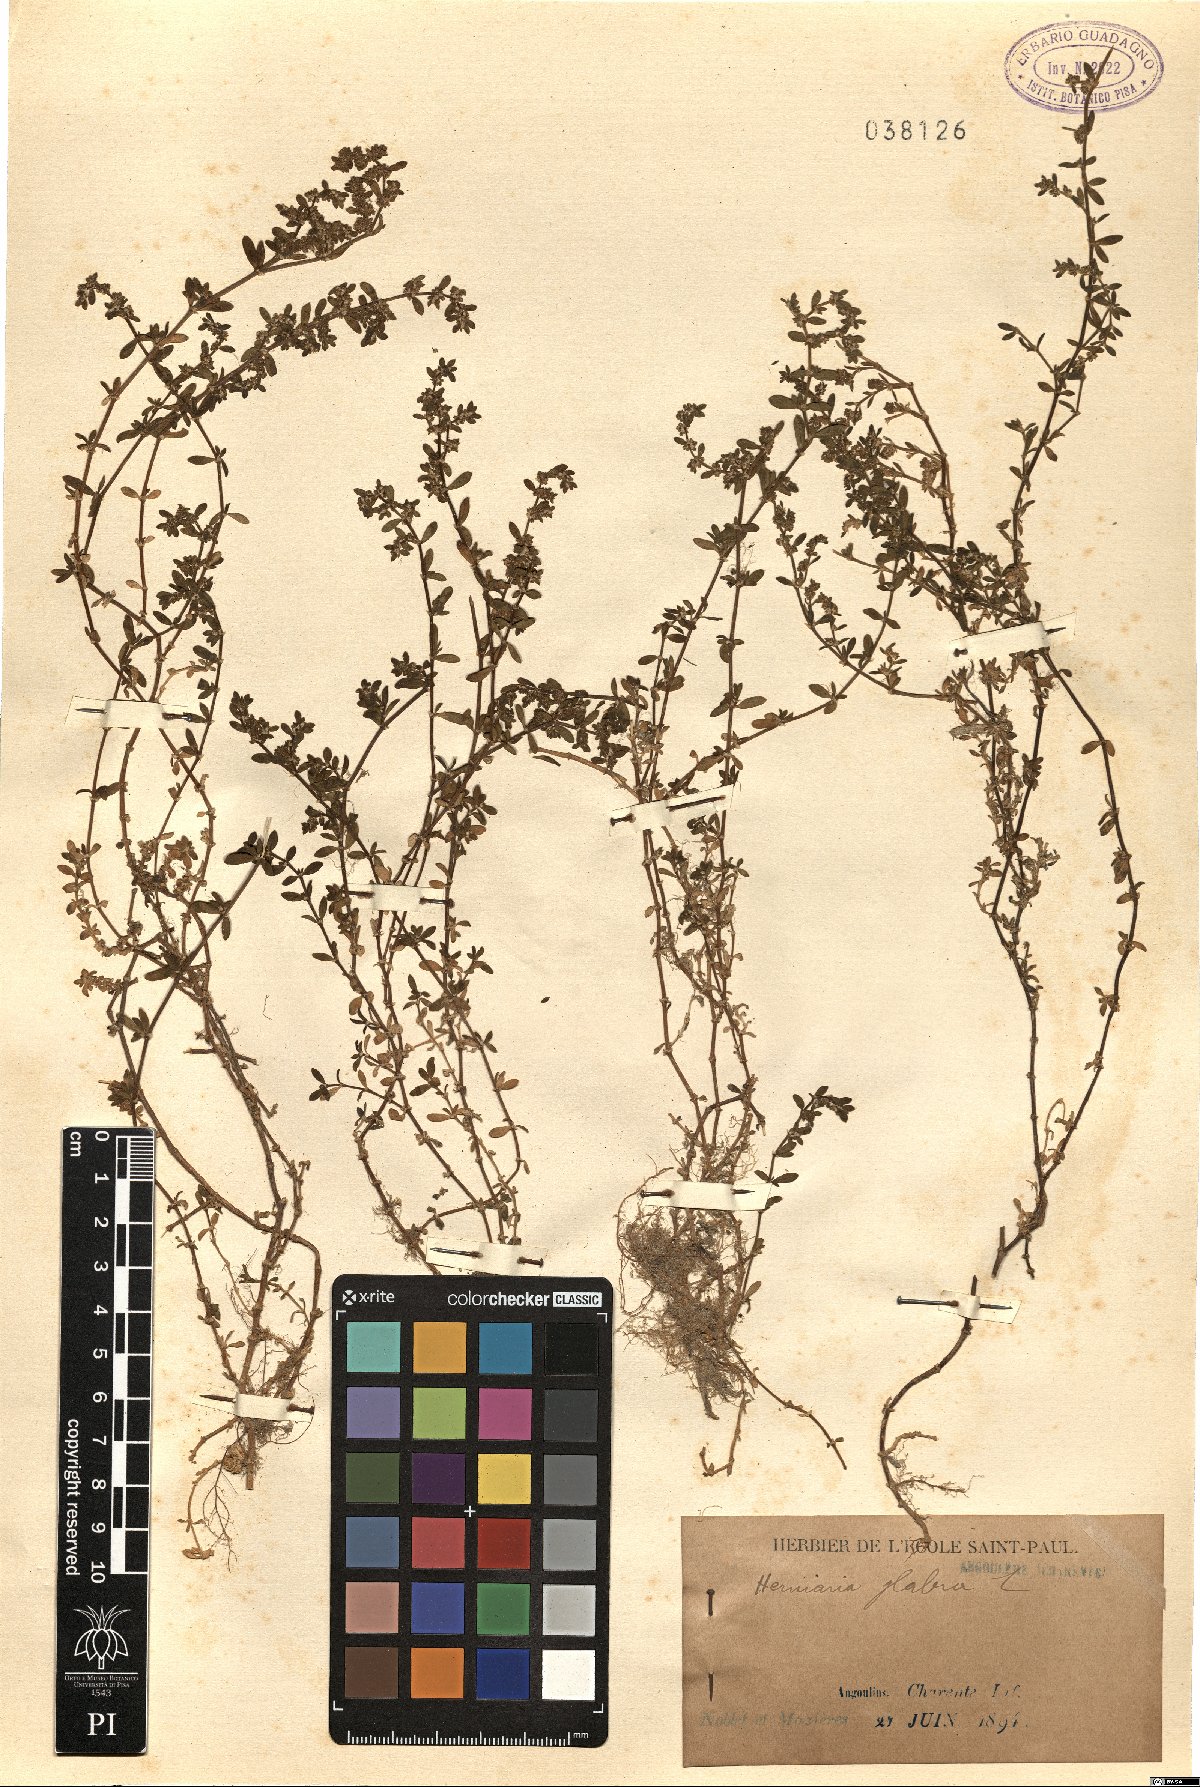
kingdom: Plantae
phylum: Tracheophyta
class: Magnoliopsida
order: Caryophyllales
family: Caryophyllaceae
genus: Herniaria
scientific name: Herniaria glabra
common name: Smooth rupturewort
